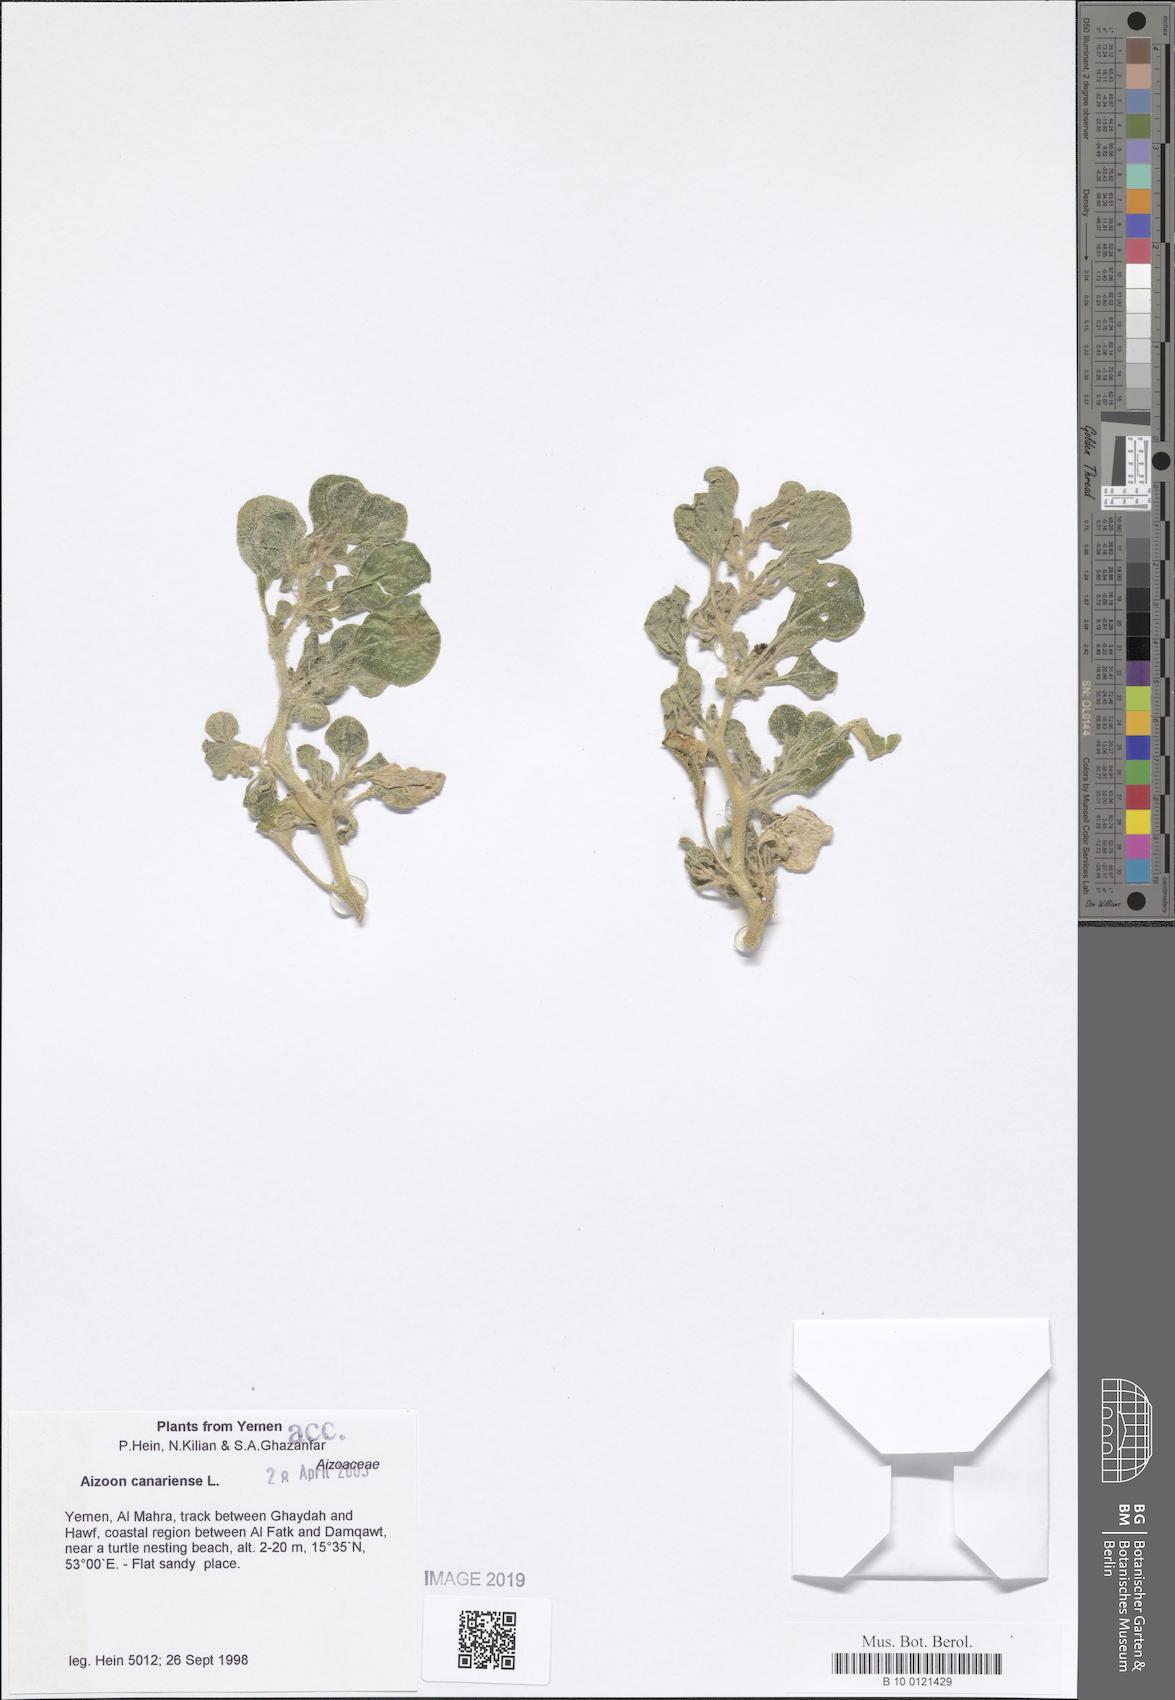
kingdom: Plantae
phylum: Tracheophyta
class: Magnoliopsida
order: Caryophyllales
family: Aizoaceae
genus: Aizoon
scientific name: Aizoon canariense
